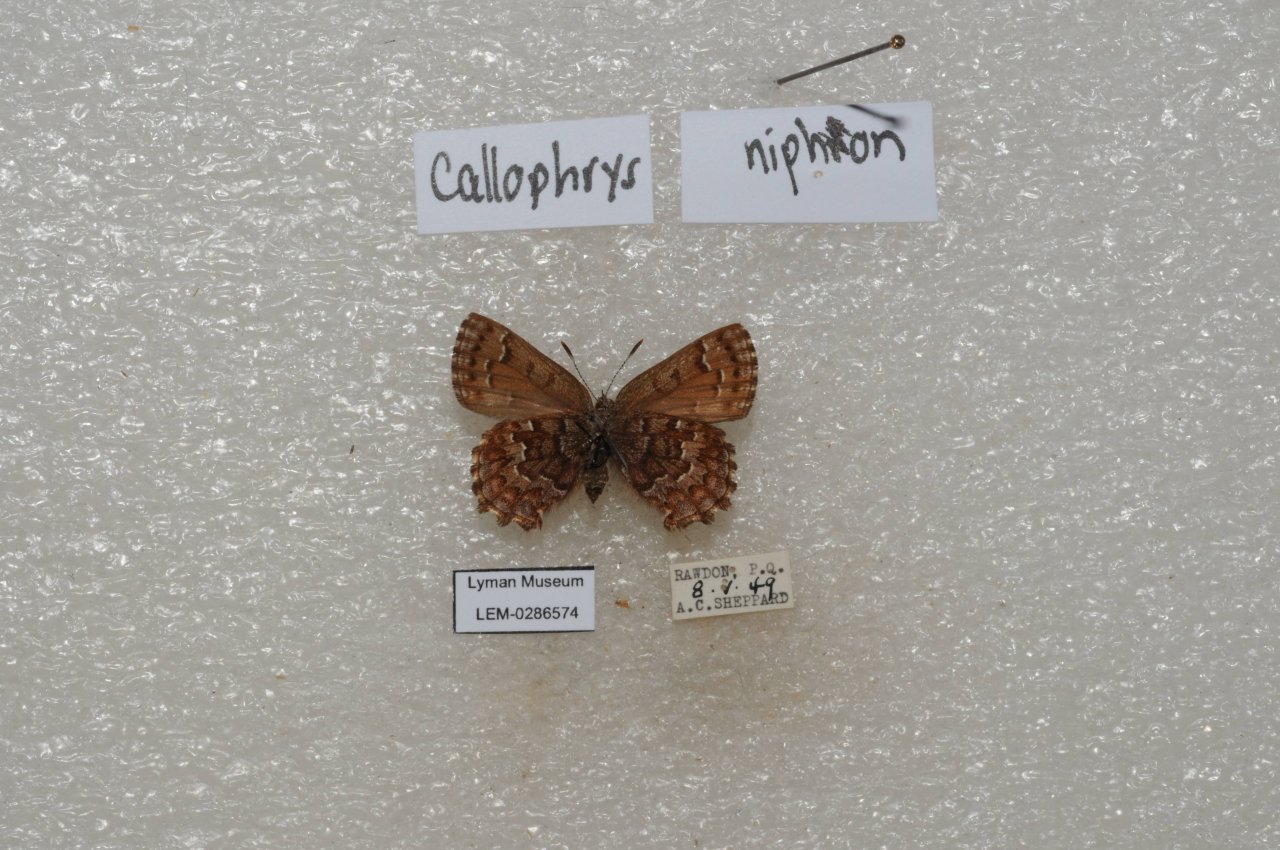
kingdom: Animalia
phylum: Arthropoda
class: Insecta
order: Lepidoptera
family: Lycaenidae
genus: Incisalia
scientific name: Incisalia niphon
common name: Eastern Pine Elfin
